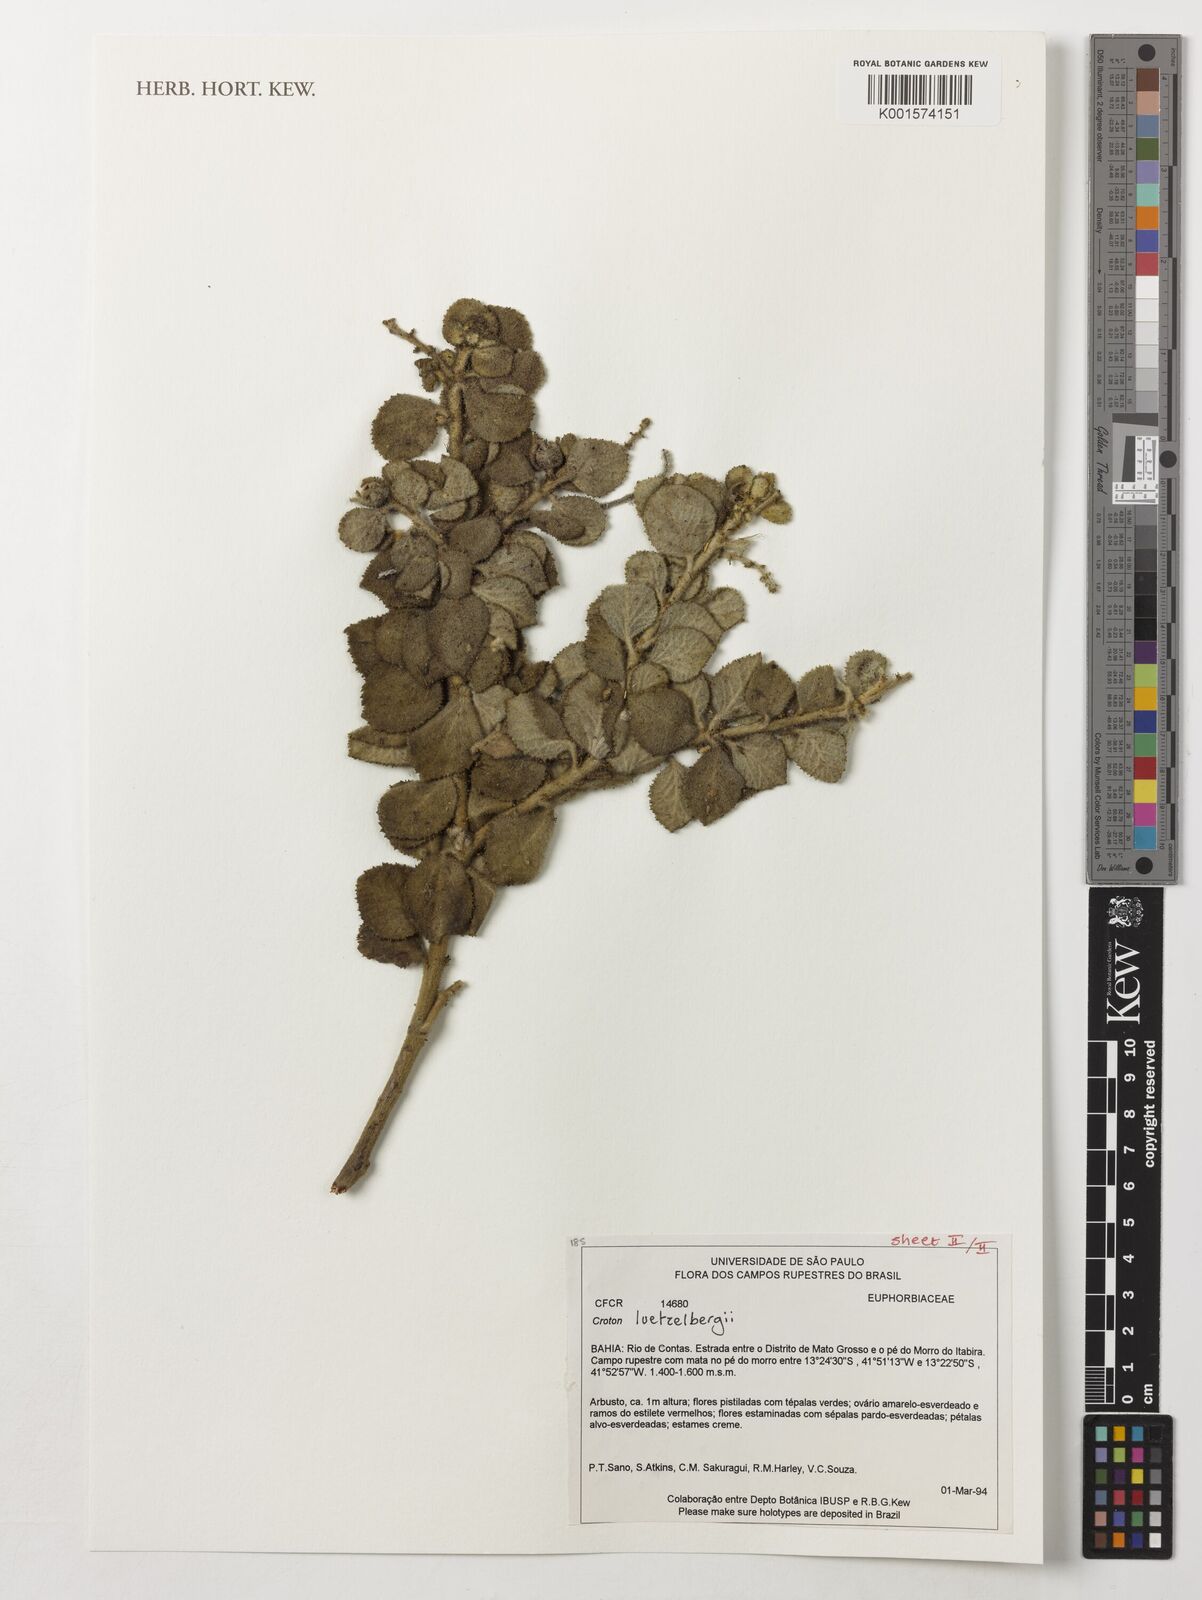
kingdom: Plantae
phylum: Tracheophyta
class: Magnoliopsida
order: Malpighiales
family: Euphorbiaceae
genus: Croton
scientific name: Croton luetzelburgii
